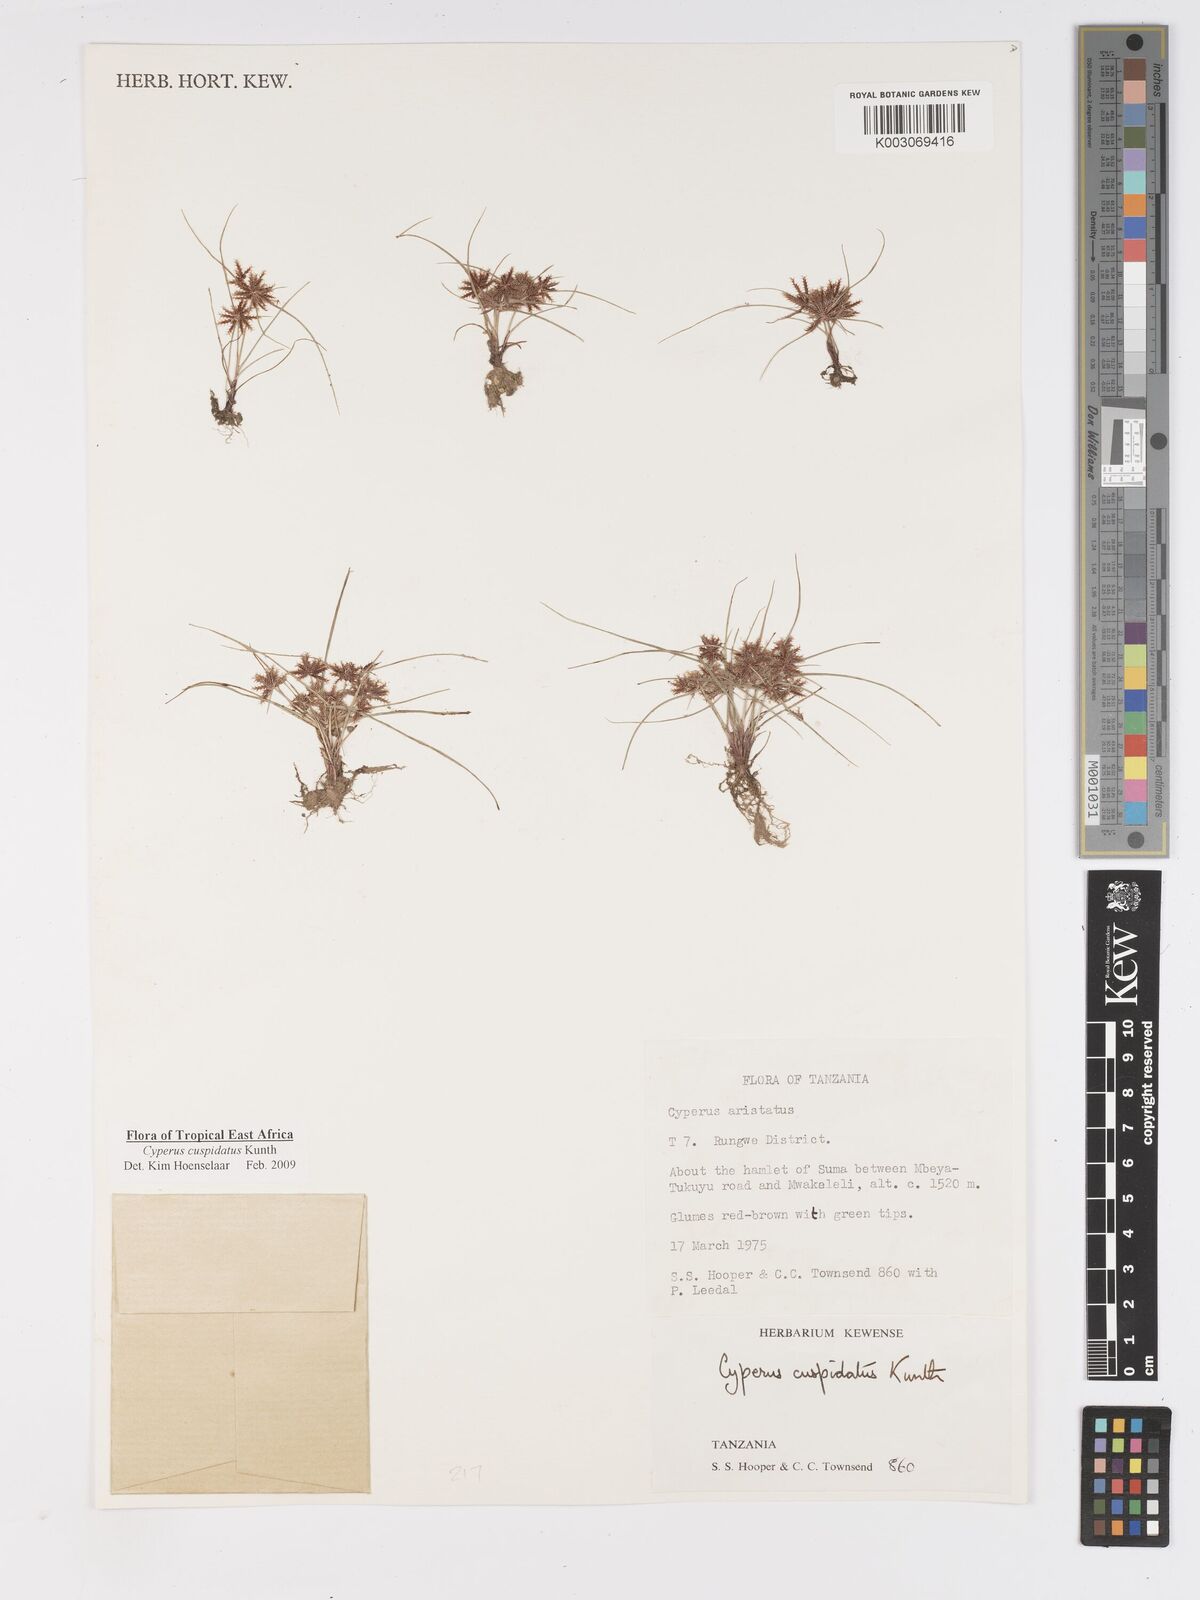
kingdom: Plantae
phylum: Tracheophyta
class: Liliopsida
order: Poales
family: Cyperaceae
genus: Cyperus
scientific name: Cyperus cuspidatus
